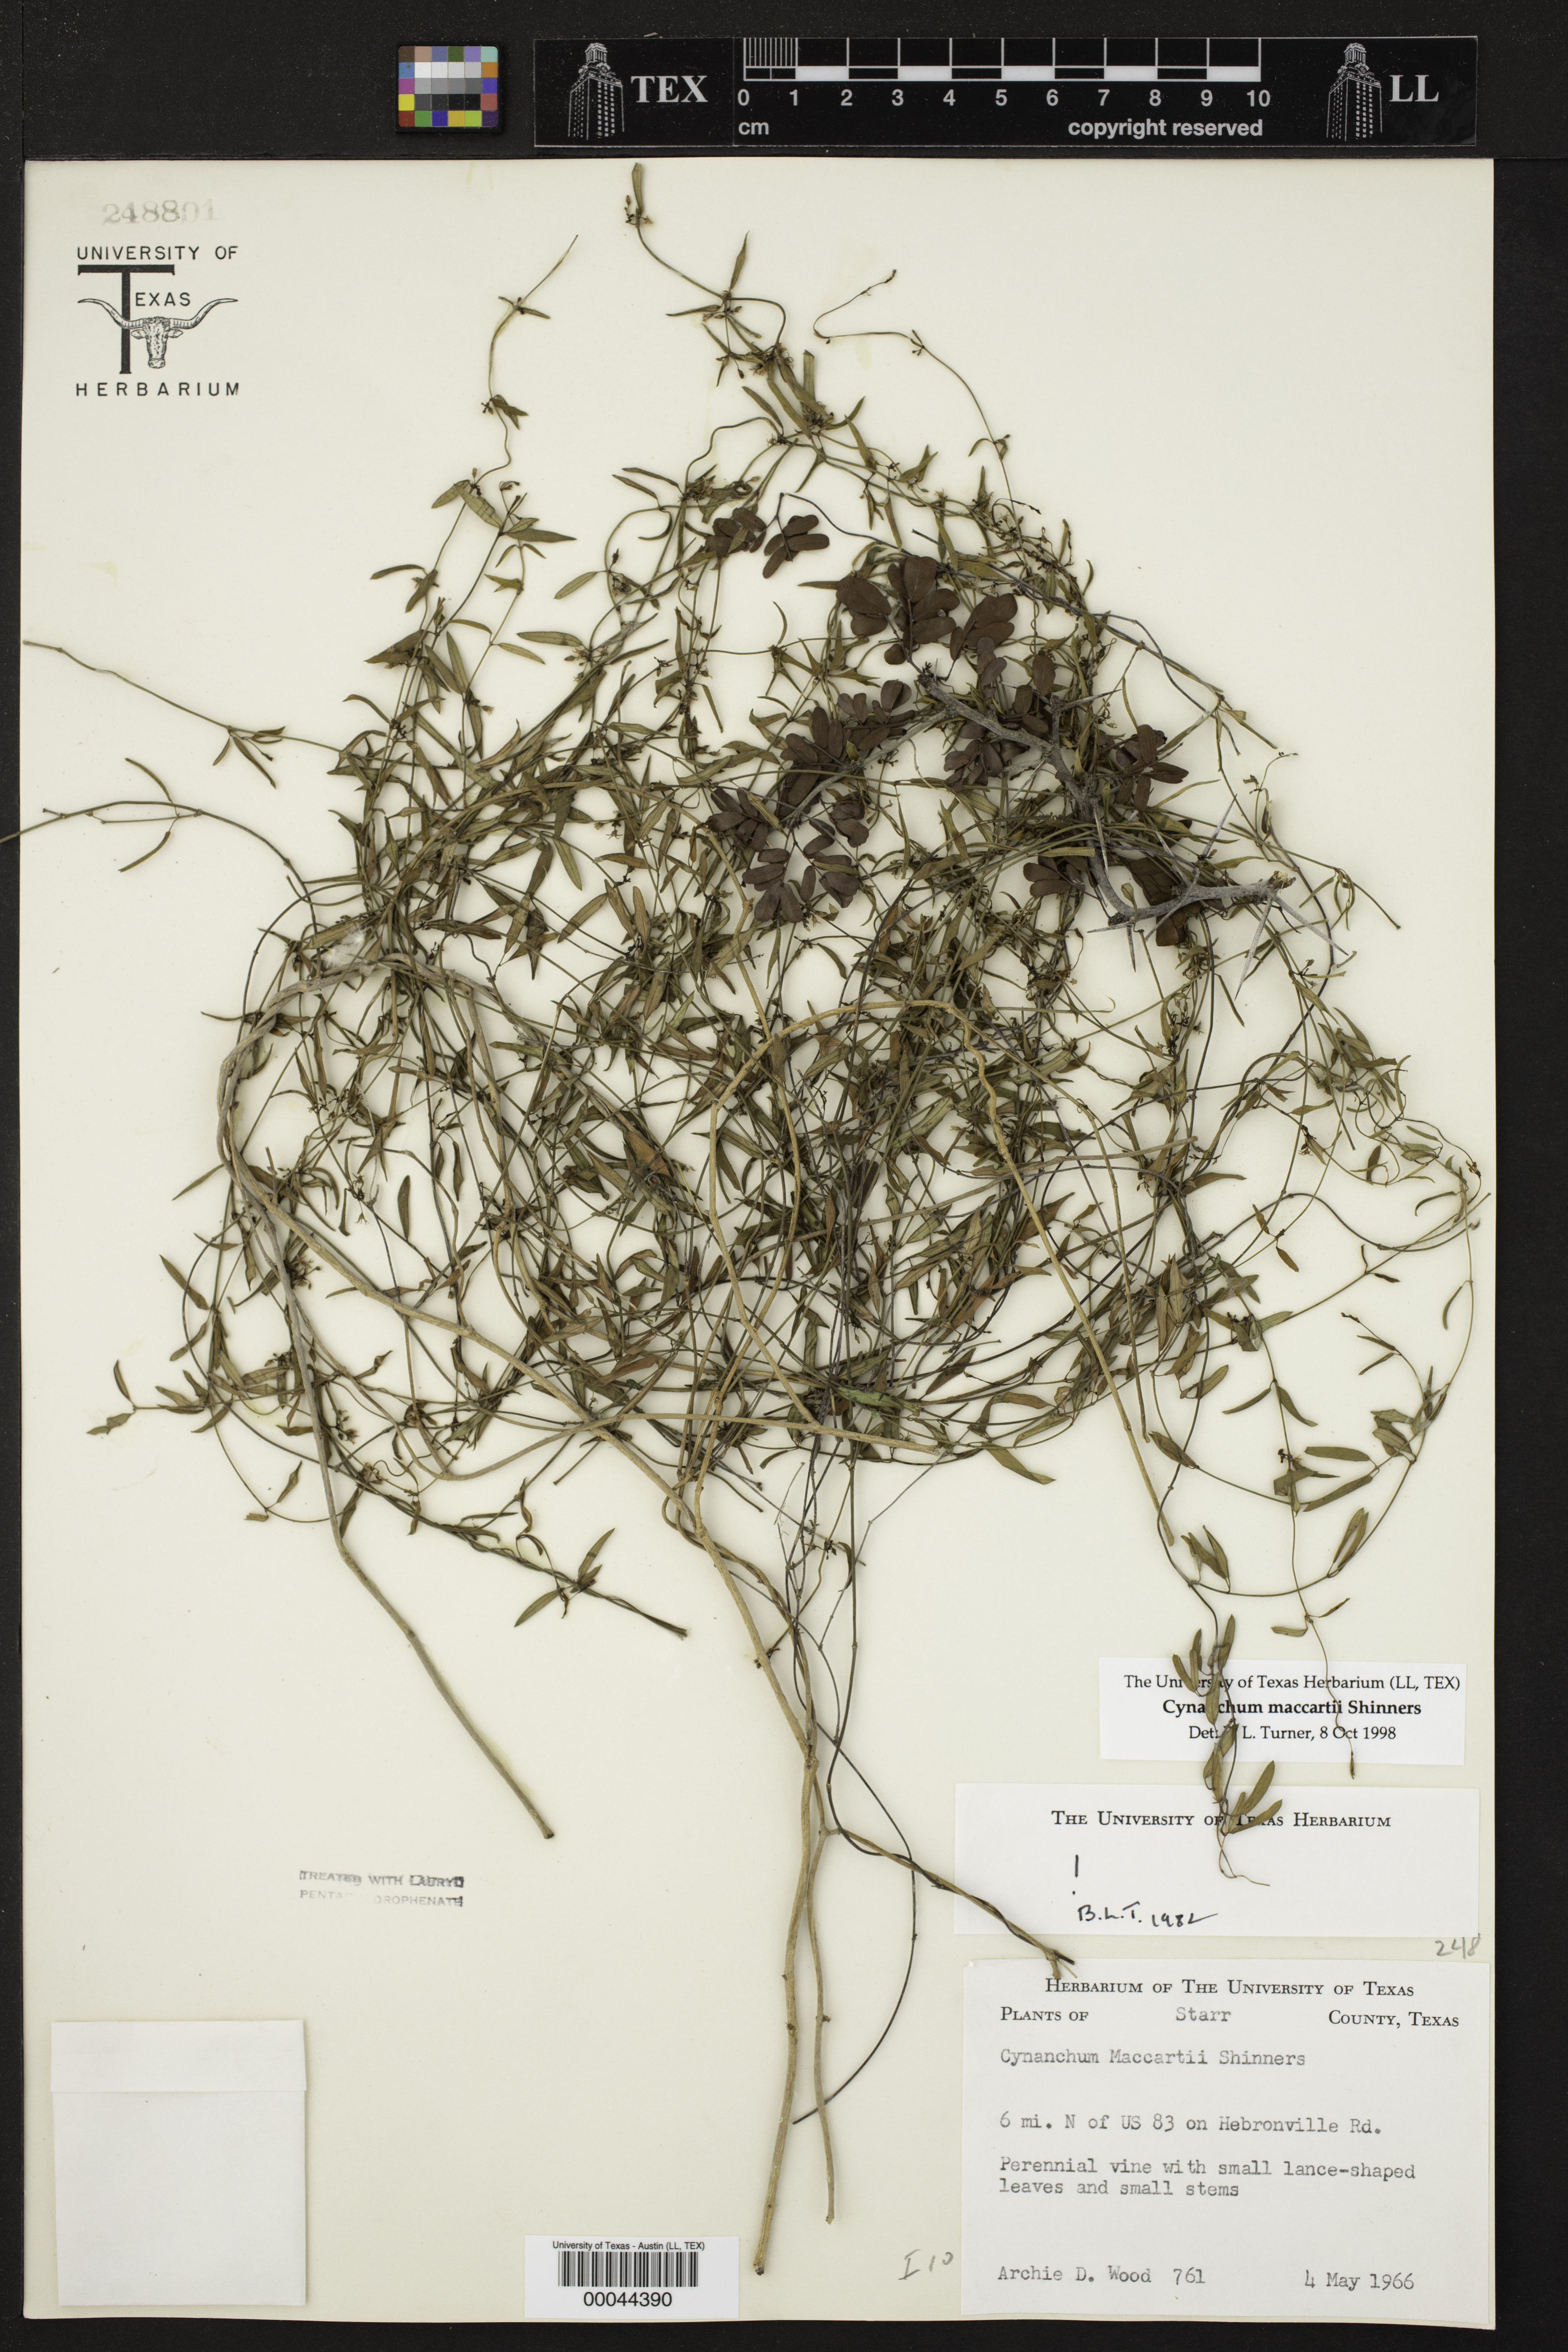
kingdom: Plantae
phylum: Tracheophyta
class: Magnoliopsida
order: Gentianales
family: Apocynaceae
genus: Metastelma
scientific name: Metastelma palmeri
